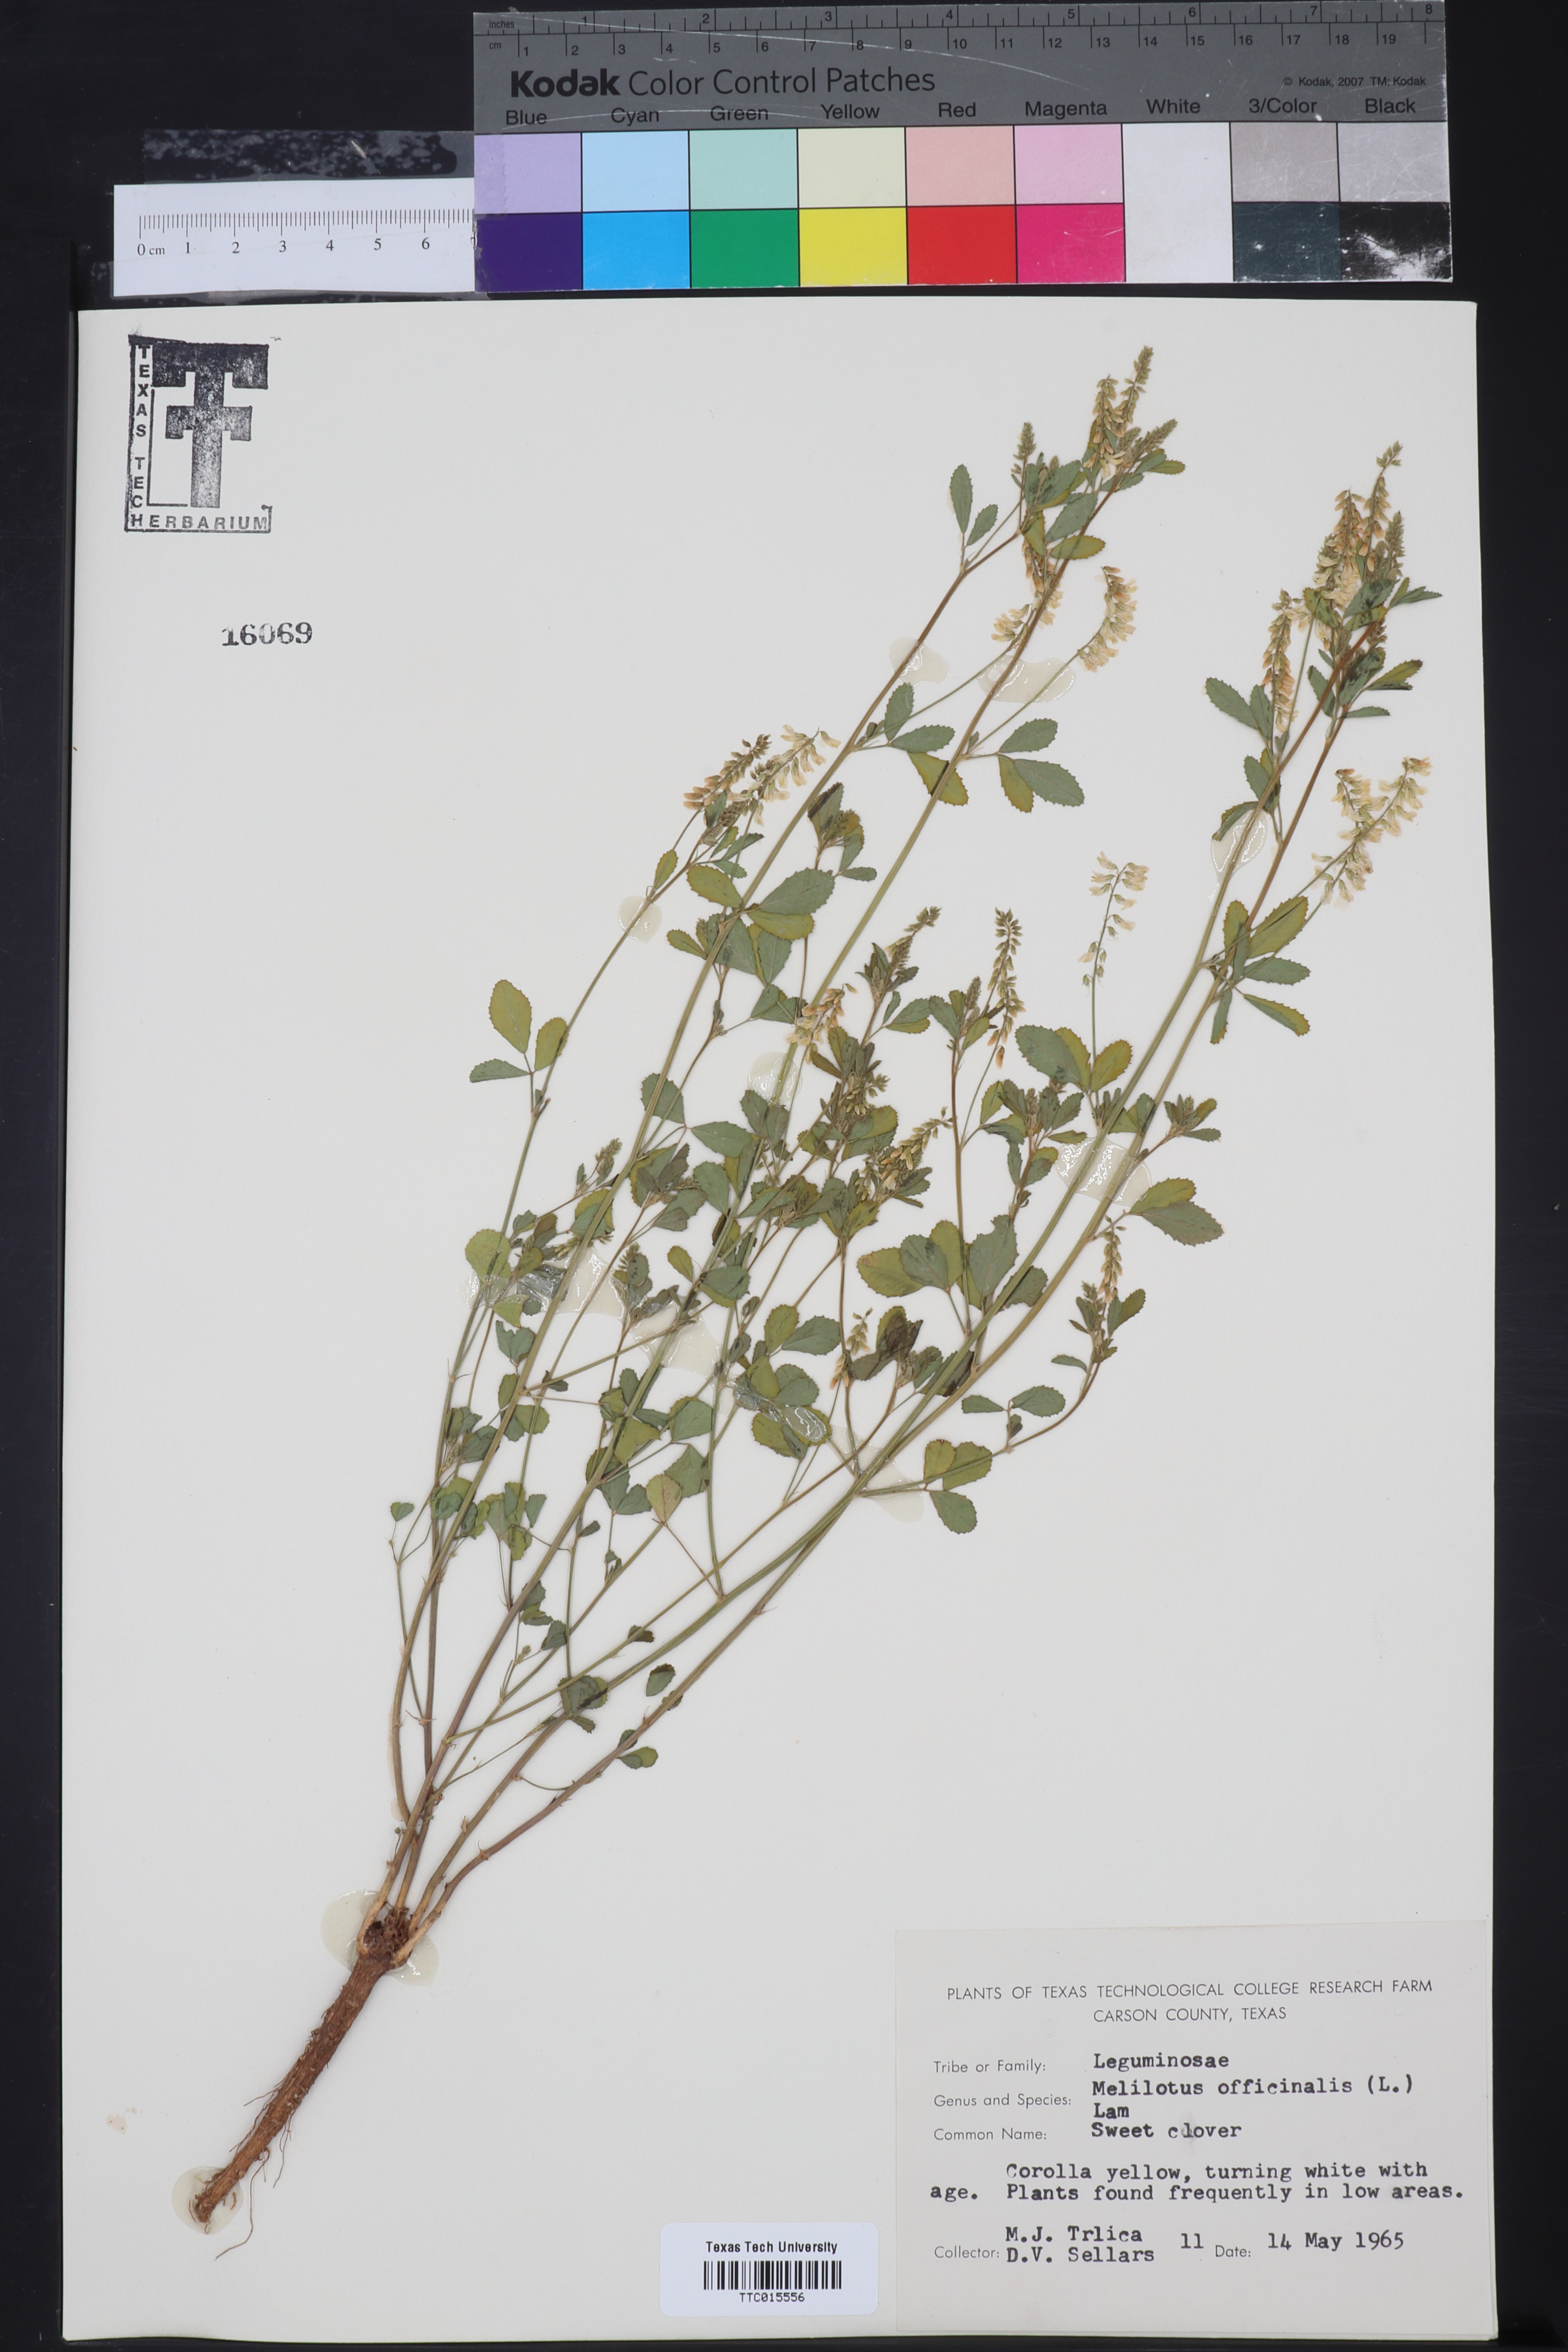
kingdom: Plantae
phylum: Tracheophyta
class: Magnoliopsida
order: Fabales
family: Fabaceae
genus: Melilotus
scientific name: Melilotus officinalis
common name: Sweetclover
